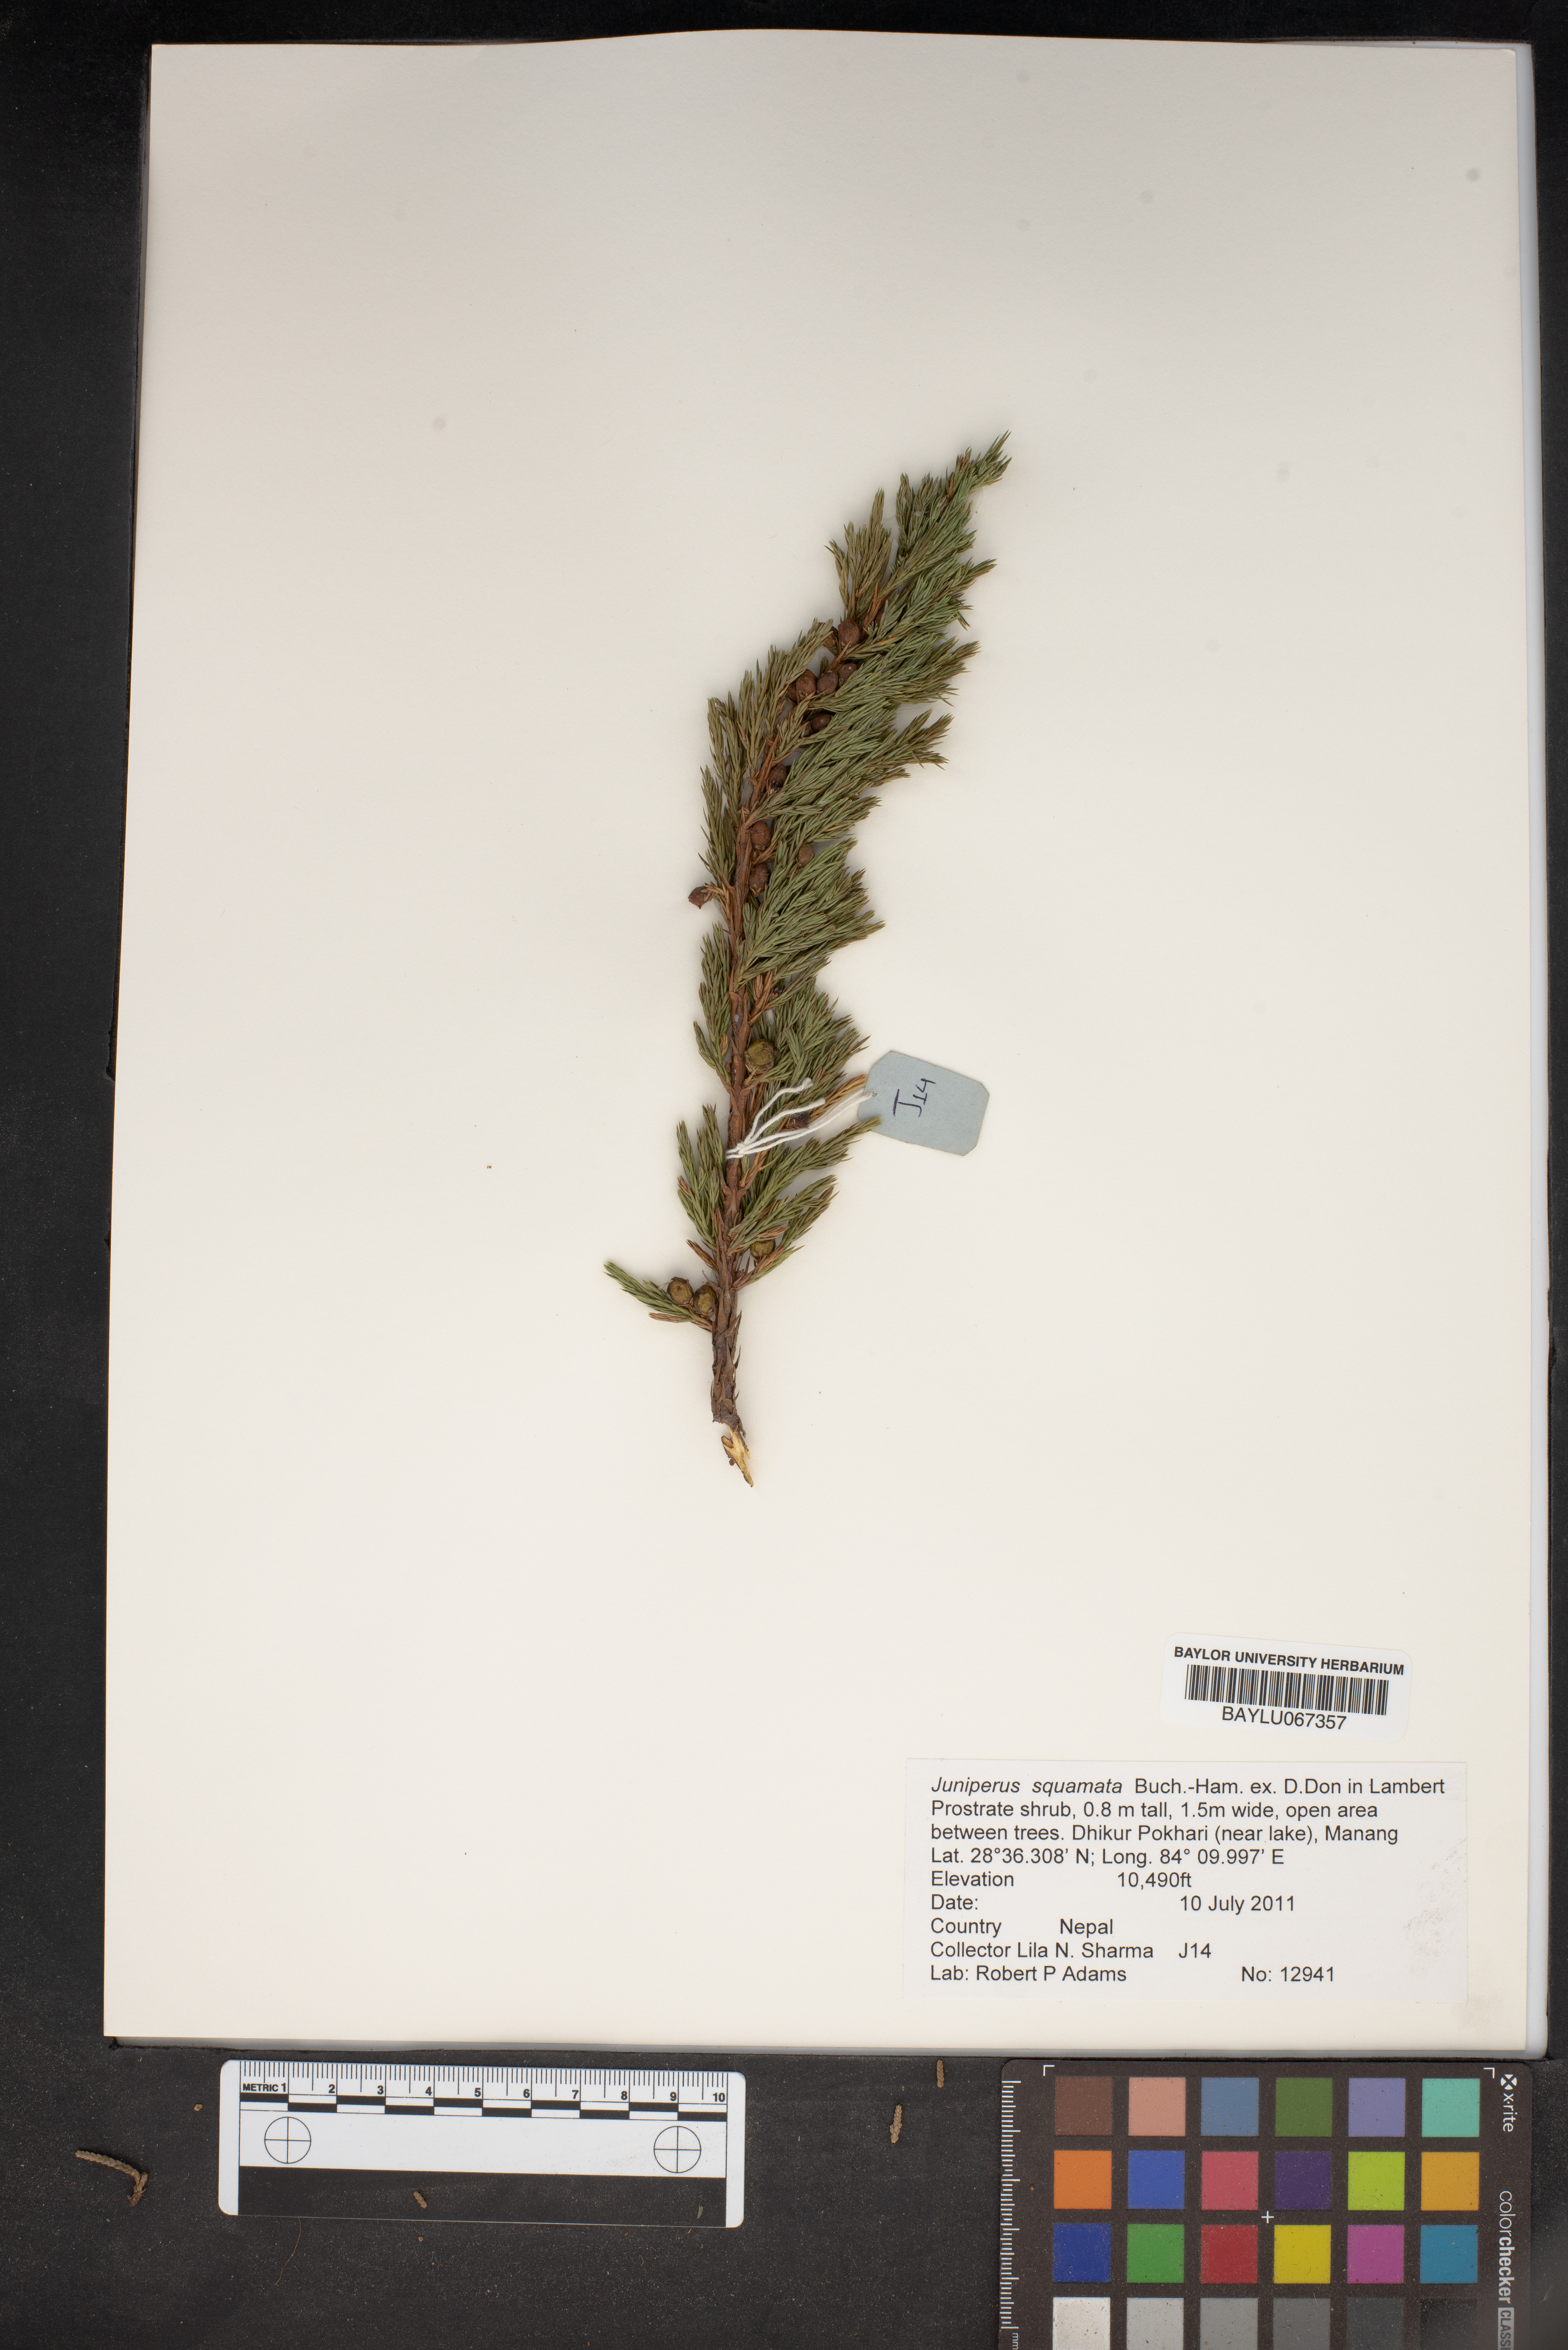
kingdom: Plantae
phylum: Tracheophyta
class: Pinopsida
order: Pinales
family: Cupressaceae
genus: Juniperus
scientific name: Juniperus squamata
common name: Flaky juniper
